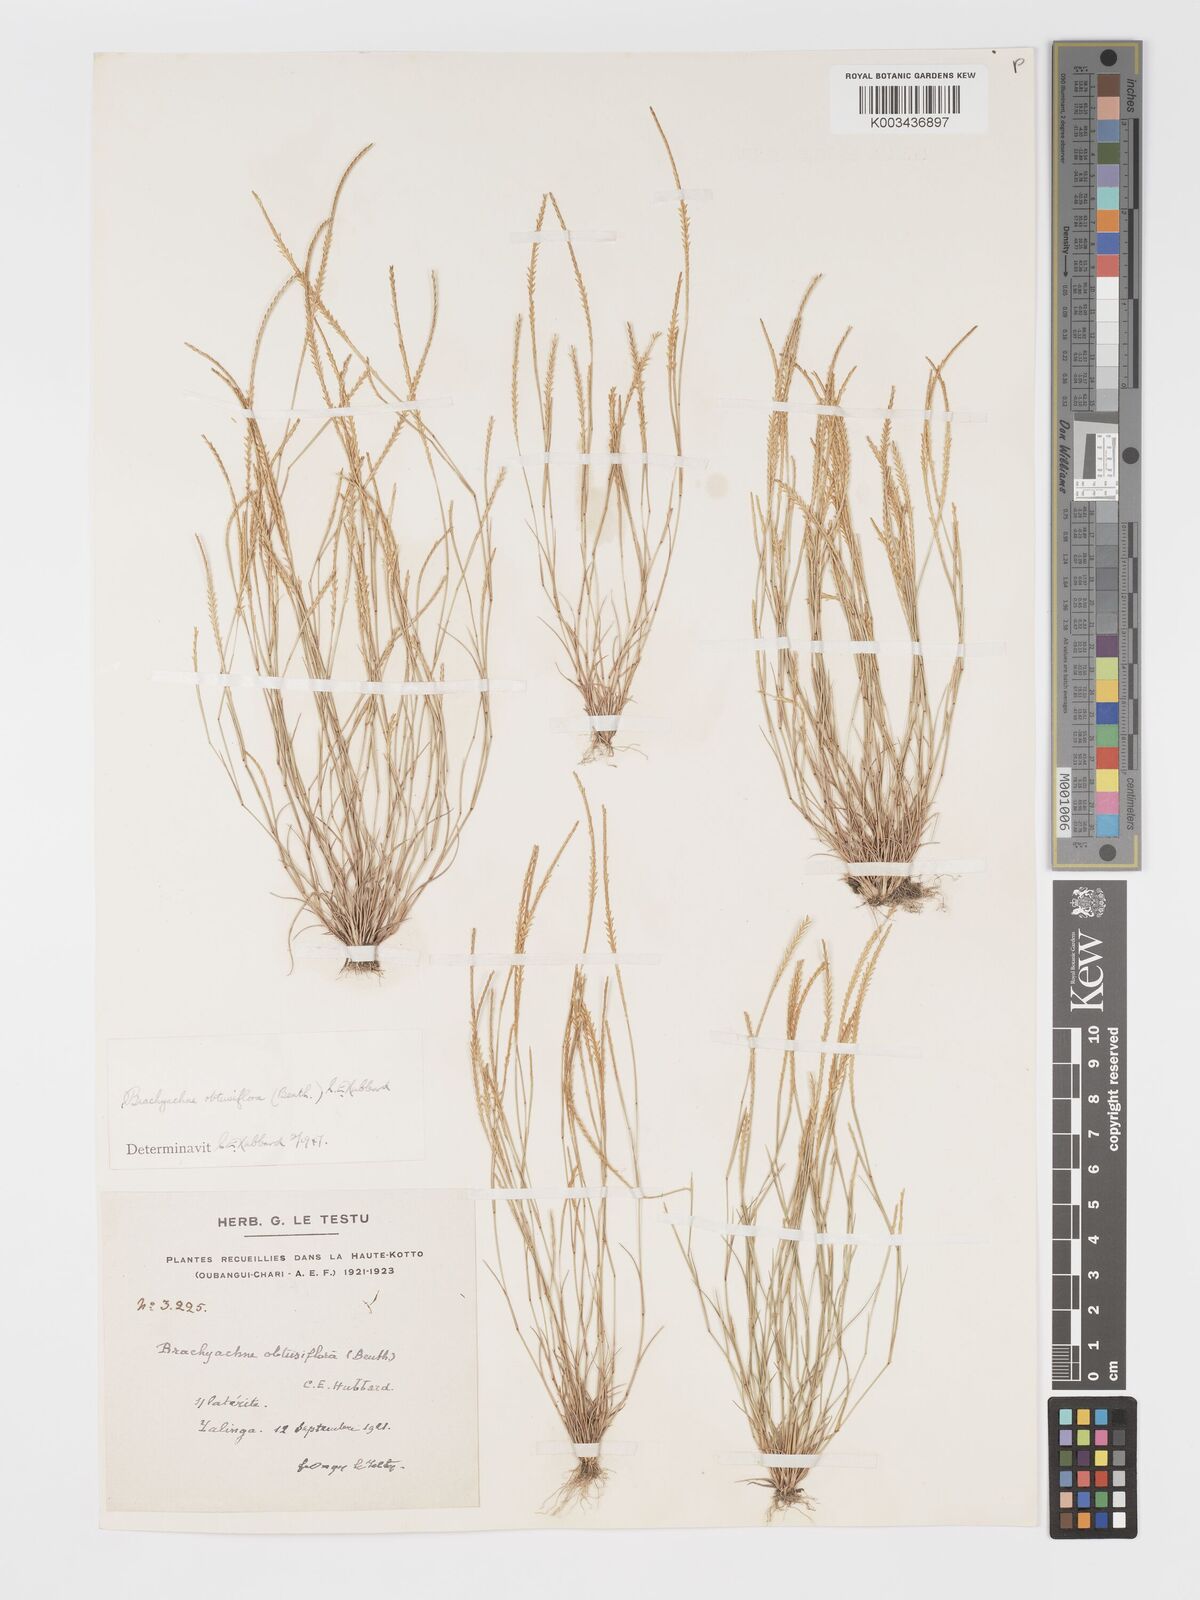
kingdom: Plantae
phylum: Tracheophyta
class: Liliopsida
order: Poales
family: Poaceae
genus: Micrachne
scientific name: Micrachne obtusiflora
